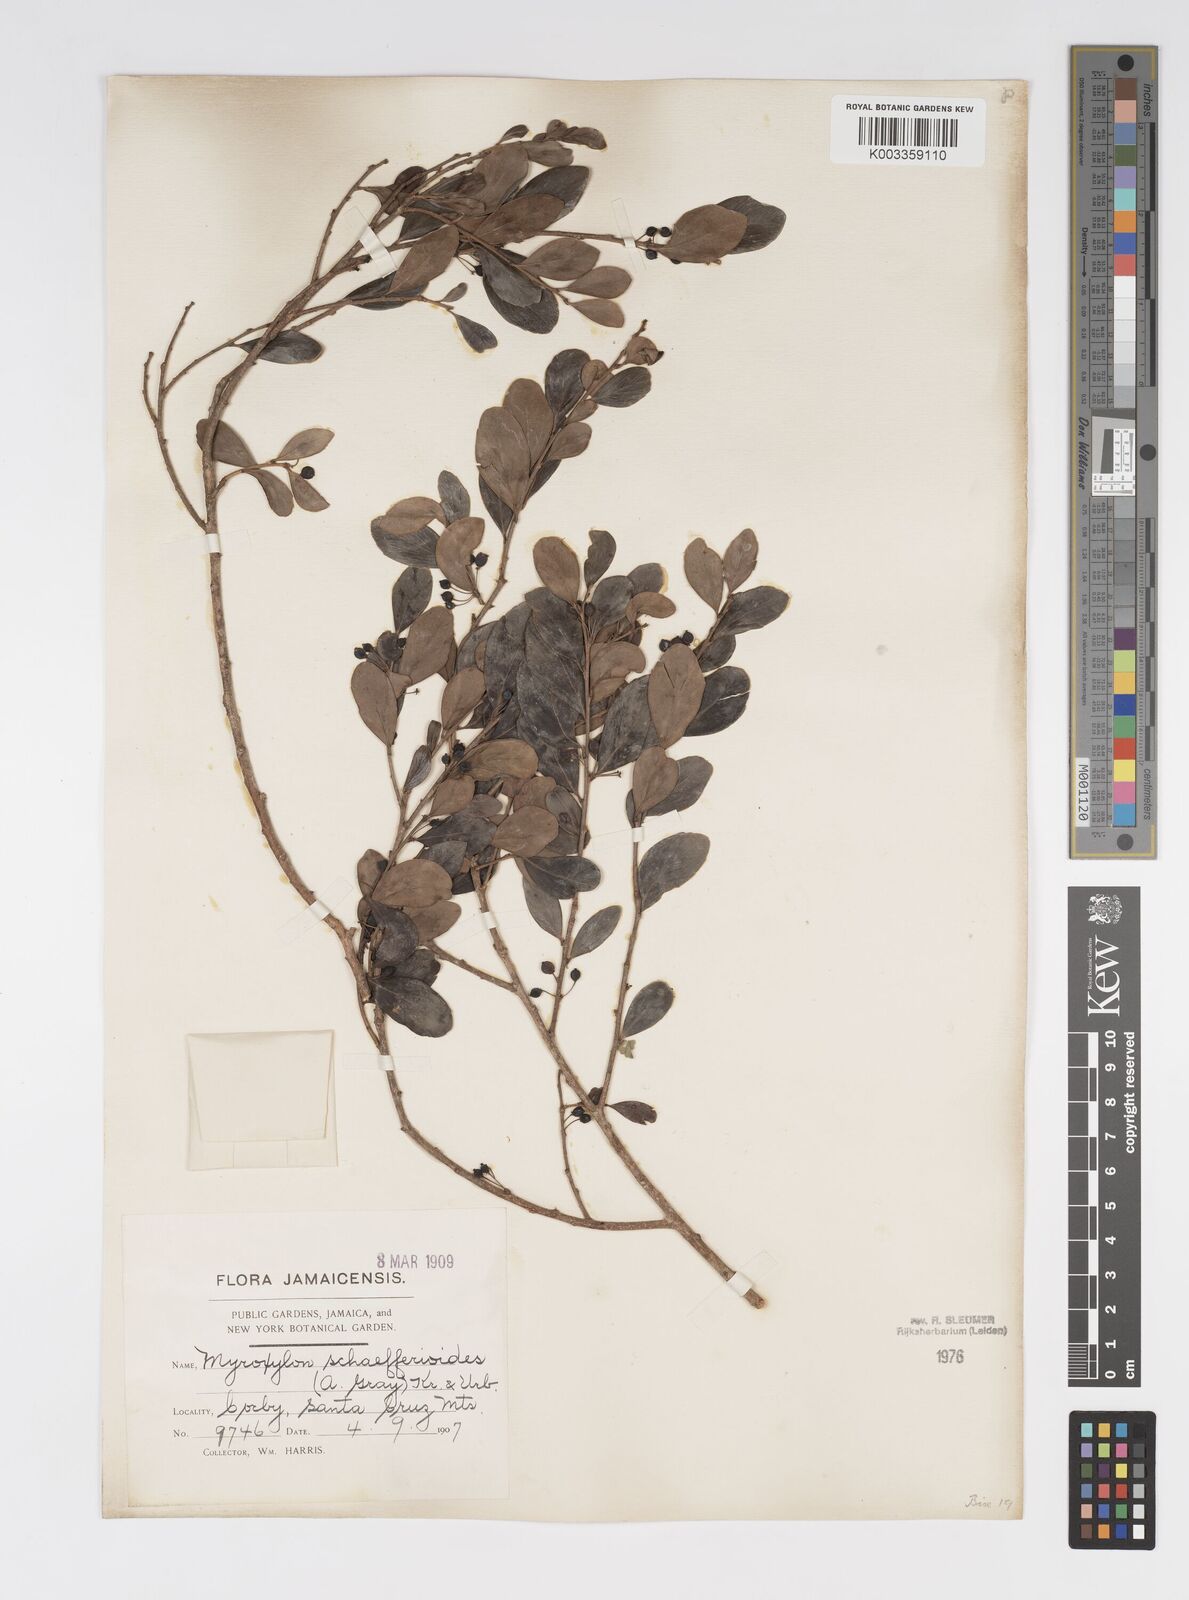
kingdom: Plantae
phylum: Tracheophyta
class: Magnoliopsida
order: Malpighiales
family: Salicaceae
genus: Xylosma
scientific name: Xylosma schaefferioides
